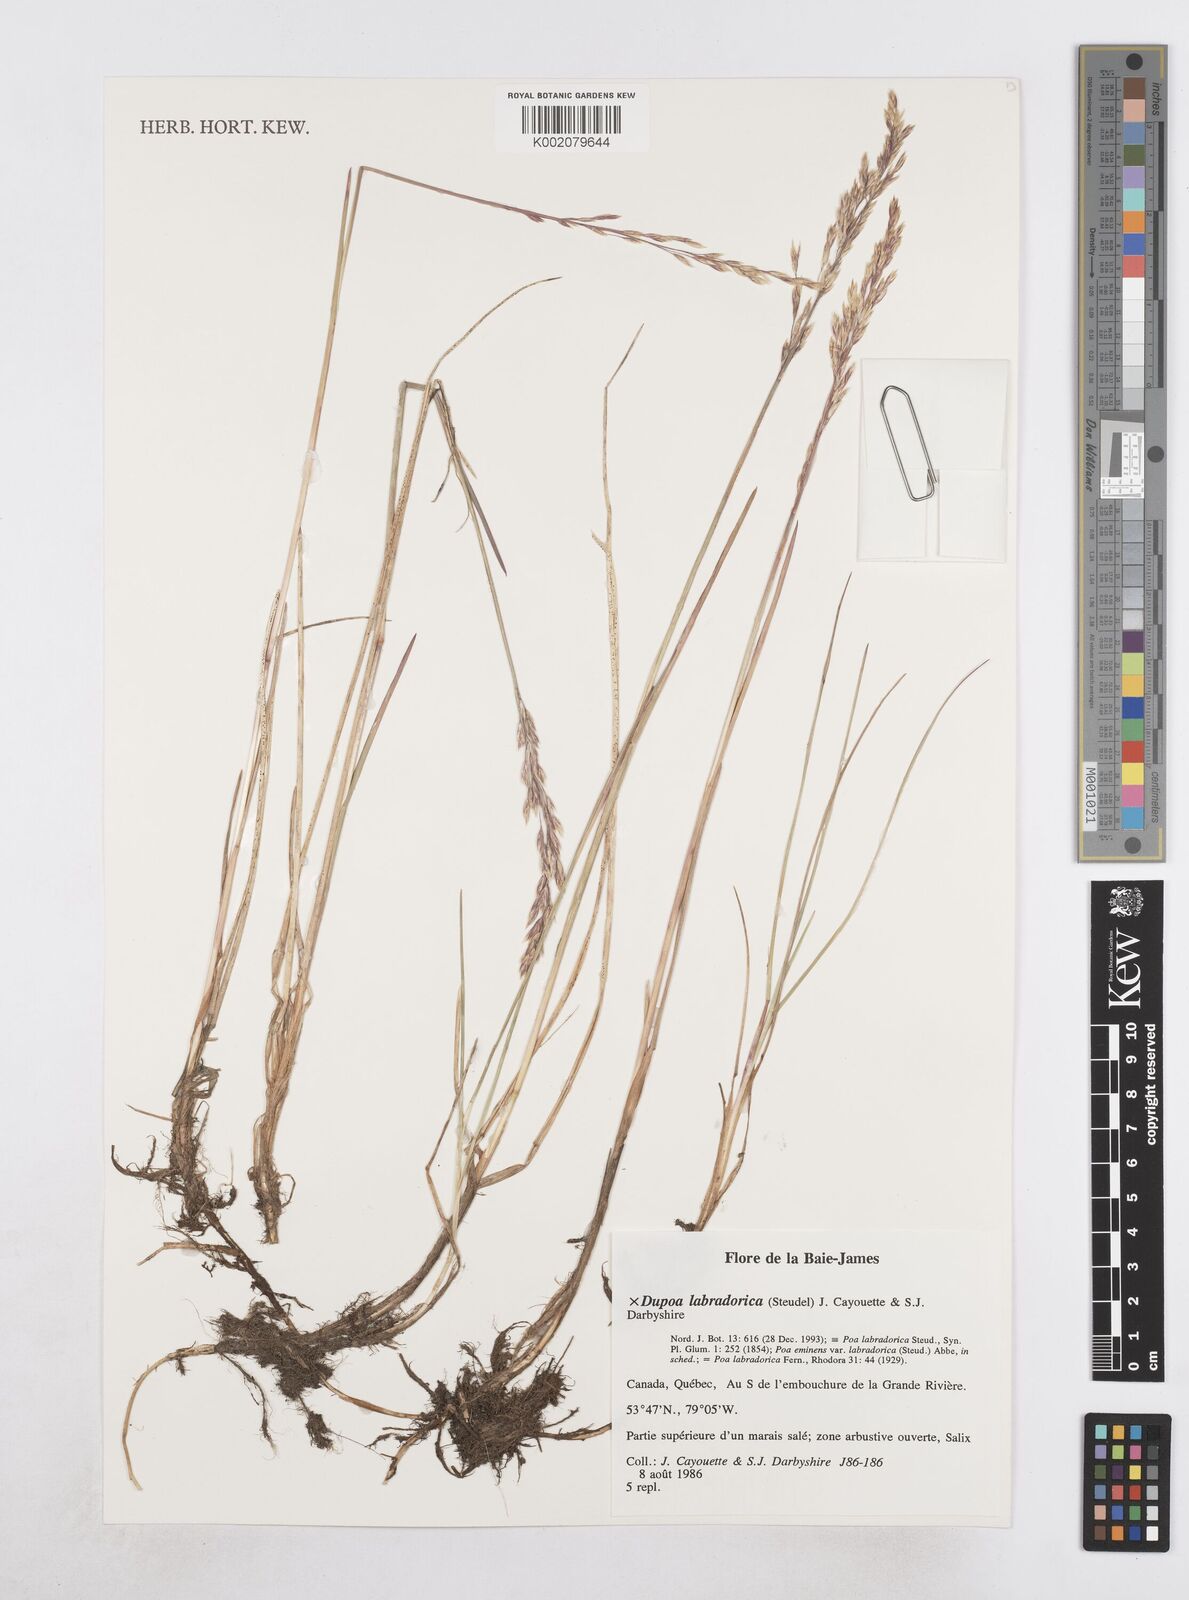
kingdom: Plantae
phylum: Tracheophyta
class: Liliopsida
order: Poales
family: Poaceae
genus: Dupontia
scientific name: Dupontia
